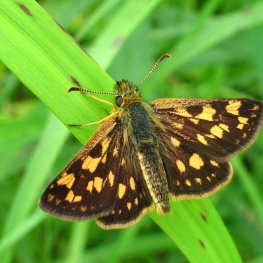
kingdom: Animalia
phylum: Arthropoda
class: Insecta
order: Lepidoptera
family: Hesperiidae
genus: Carterocephalus
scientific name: Carterocephalus palaemon
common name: Chequered Skipper
